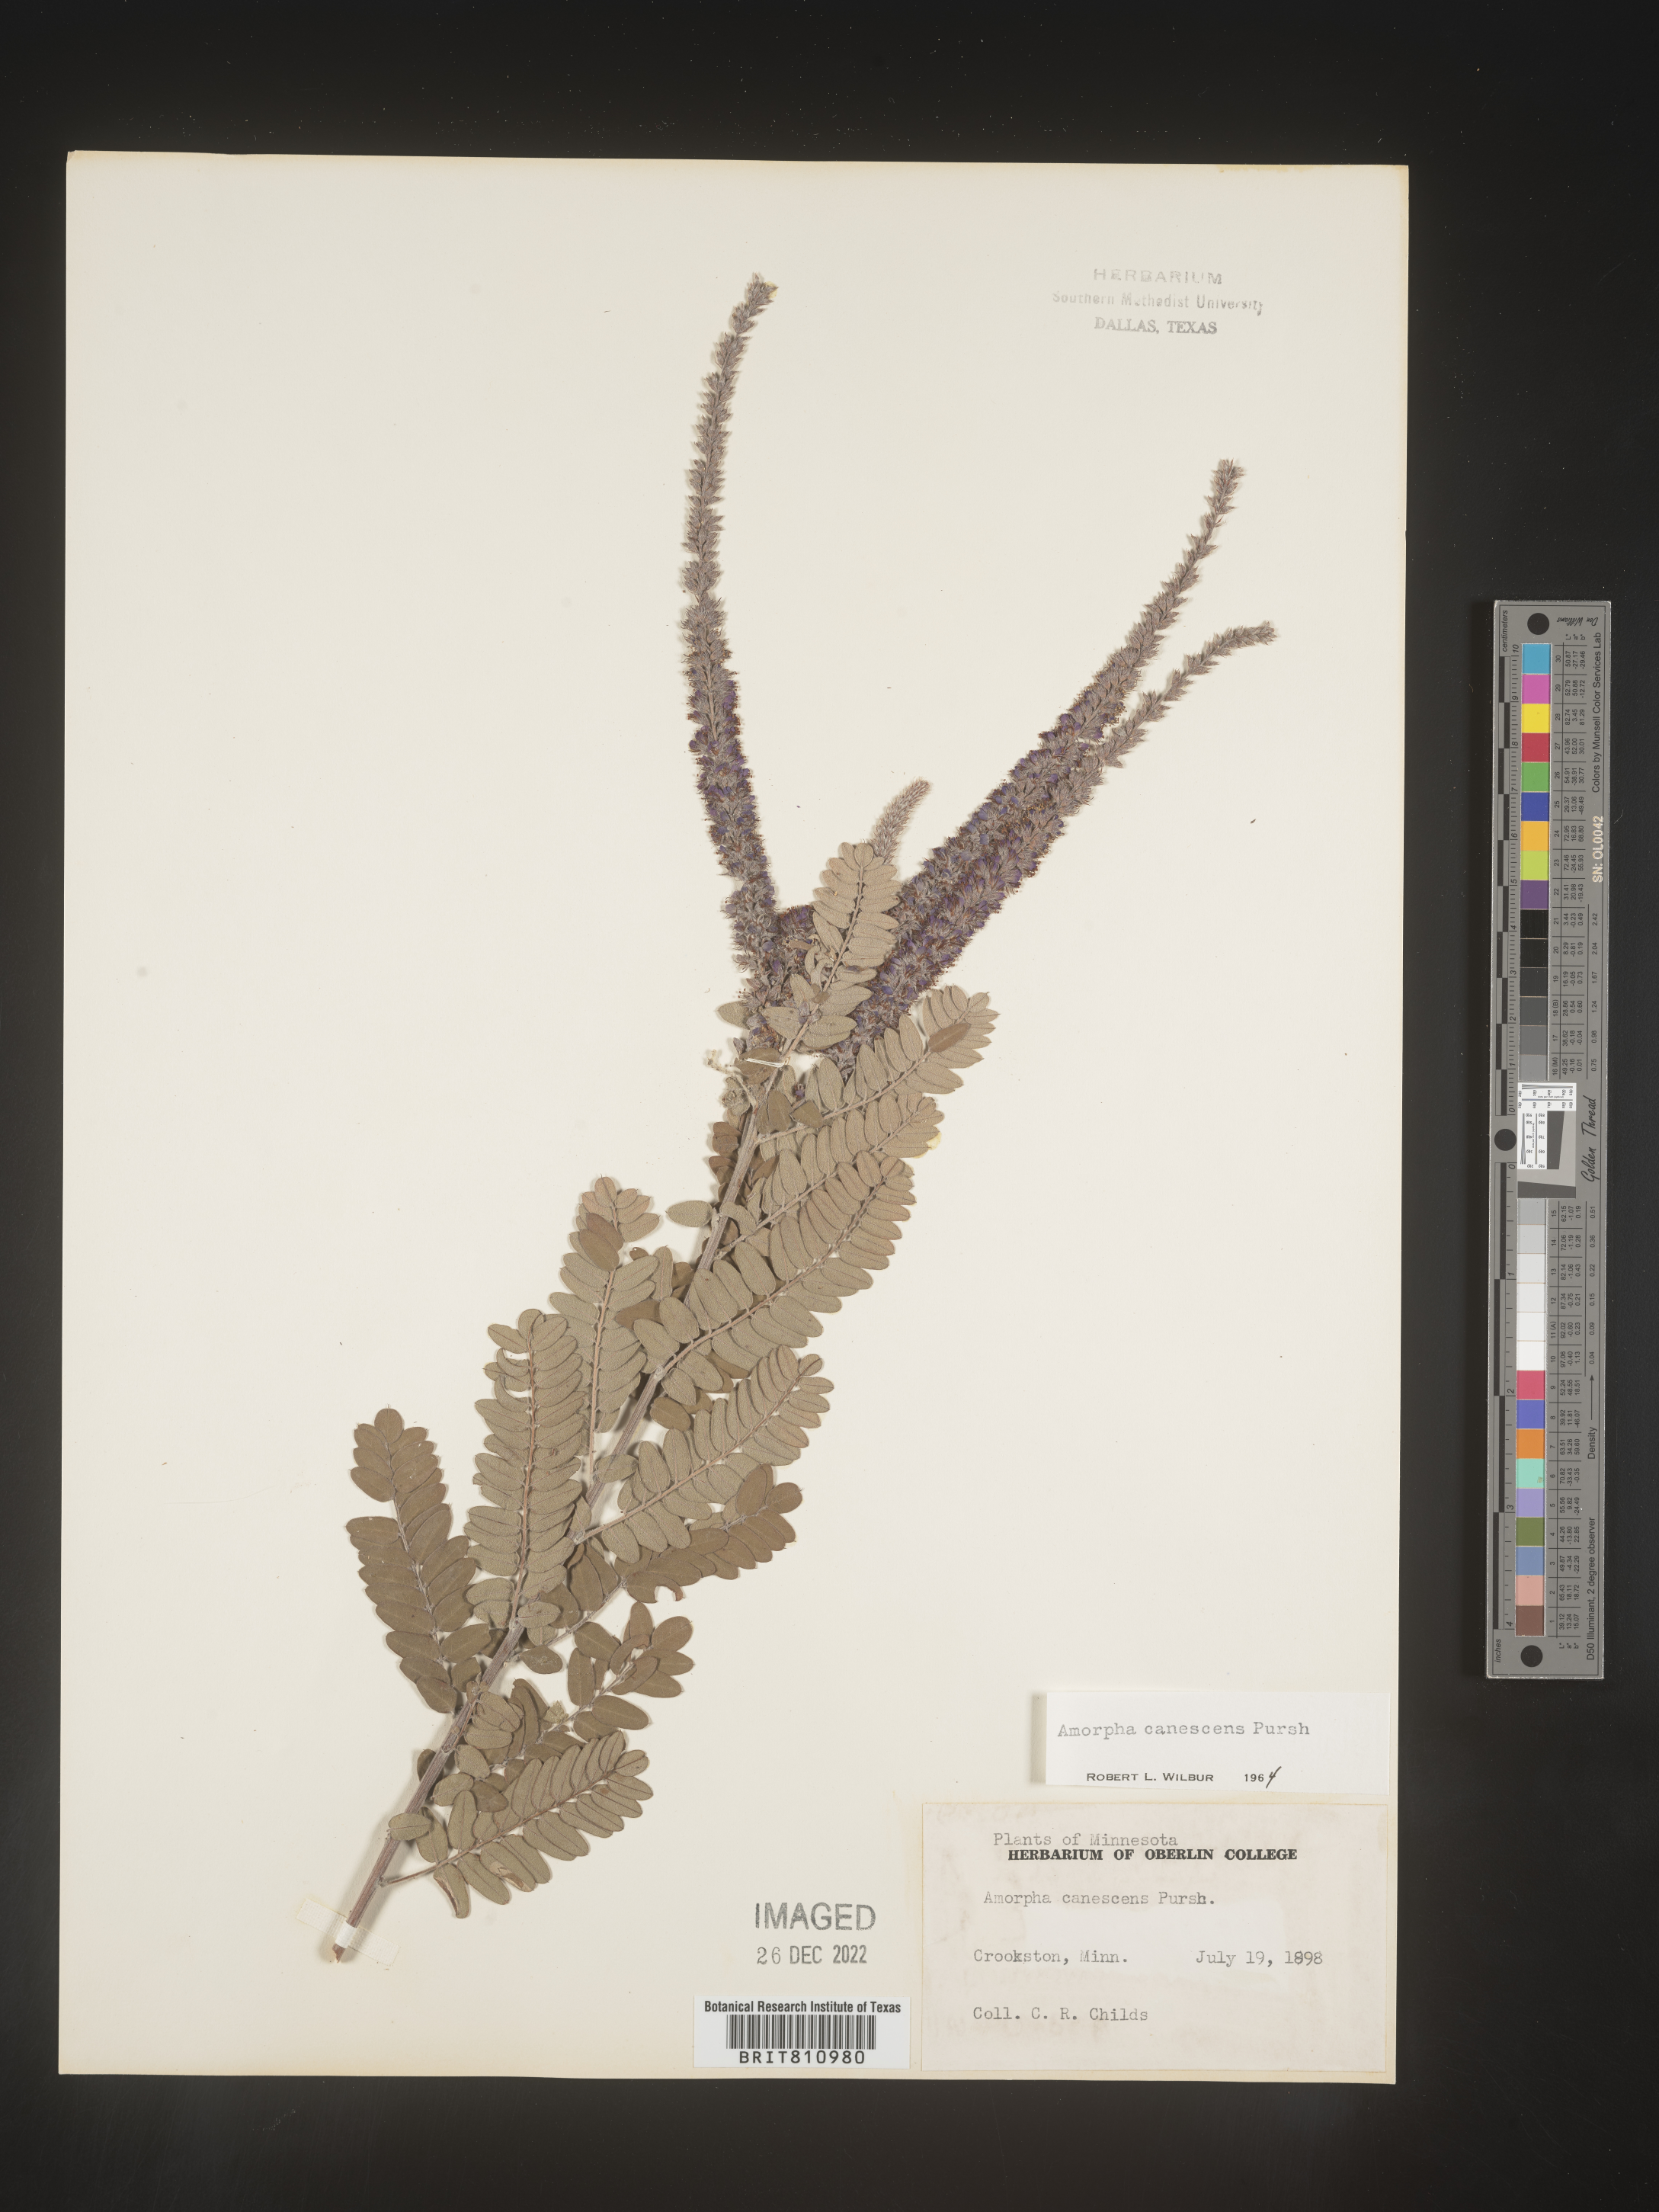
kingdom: Plantae
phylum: Tracheophyta
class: Magnoliopsida
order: Fabales
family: Fabaceae
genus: Amorpha
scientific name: Amorpha canescens
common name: Leadplant
